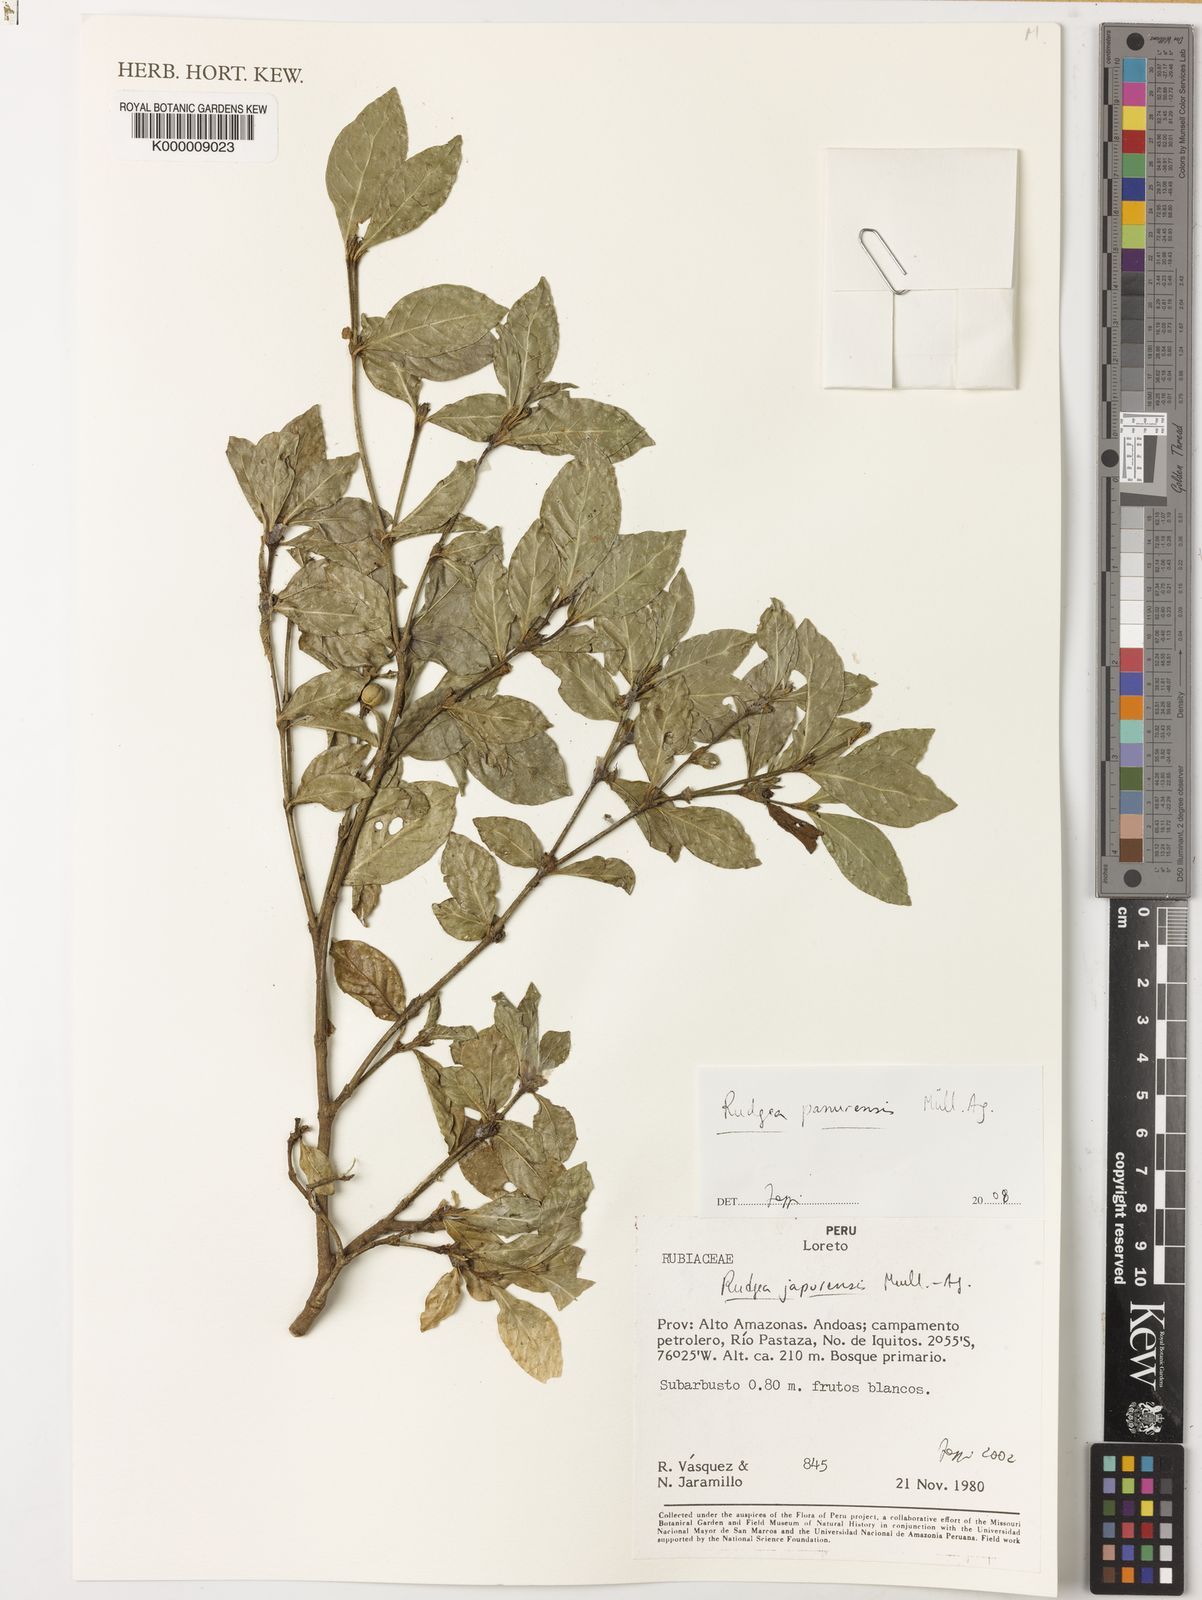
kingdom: Plantae
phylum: Tracheophyta
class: Magnoliopsida
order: Gentianales
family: Rubiaceae
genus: Rudgea
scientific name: Rudgea panurensis
